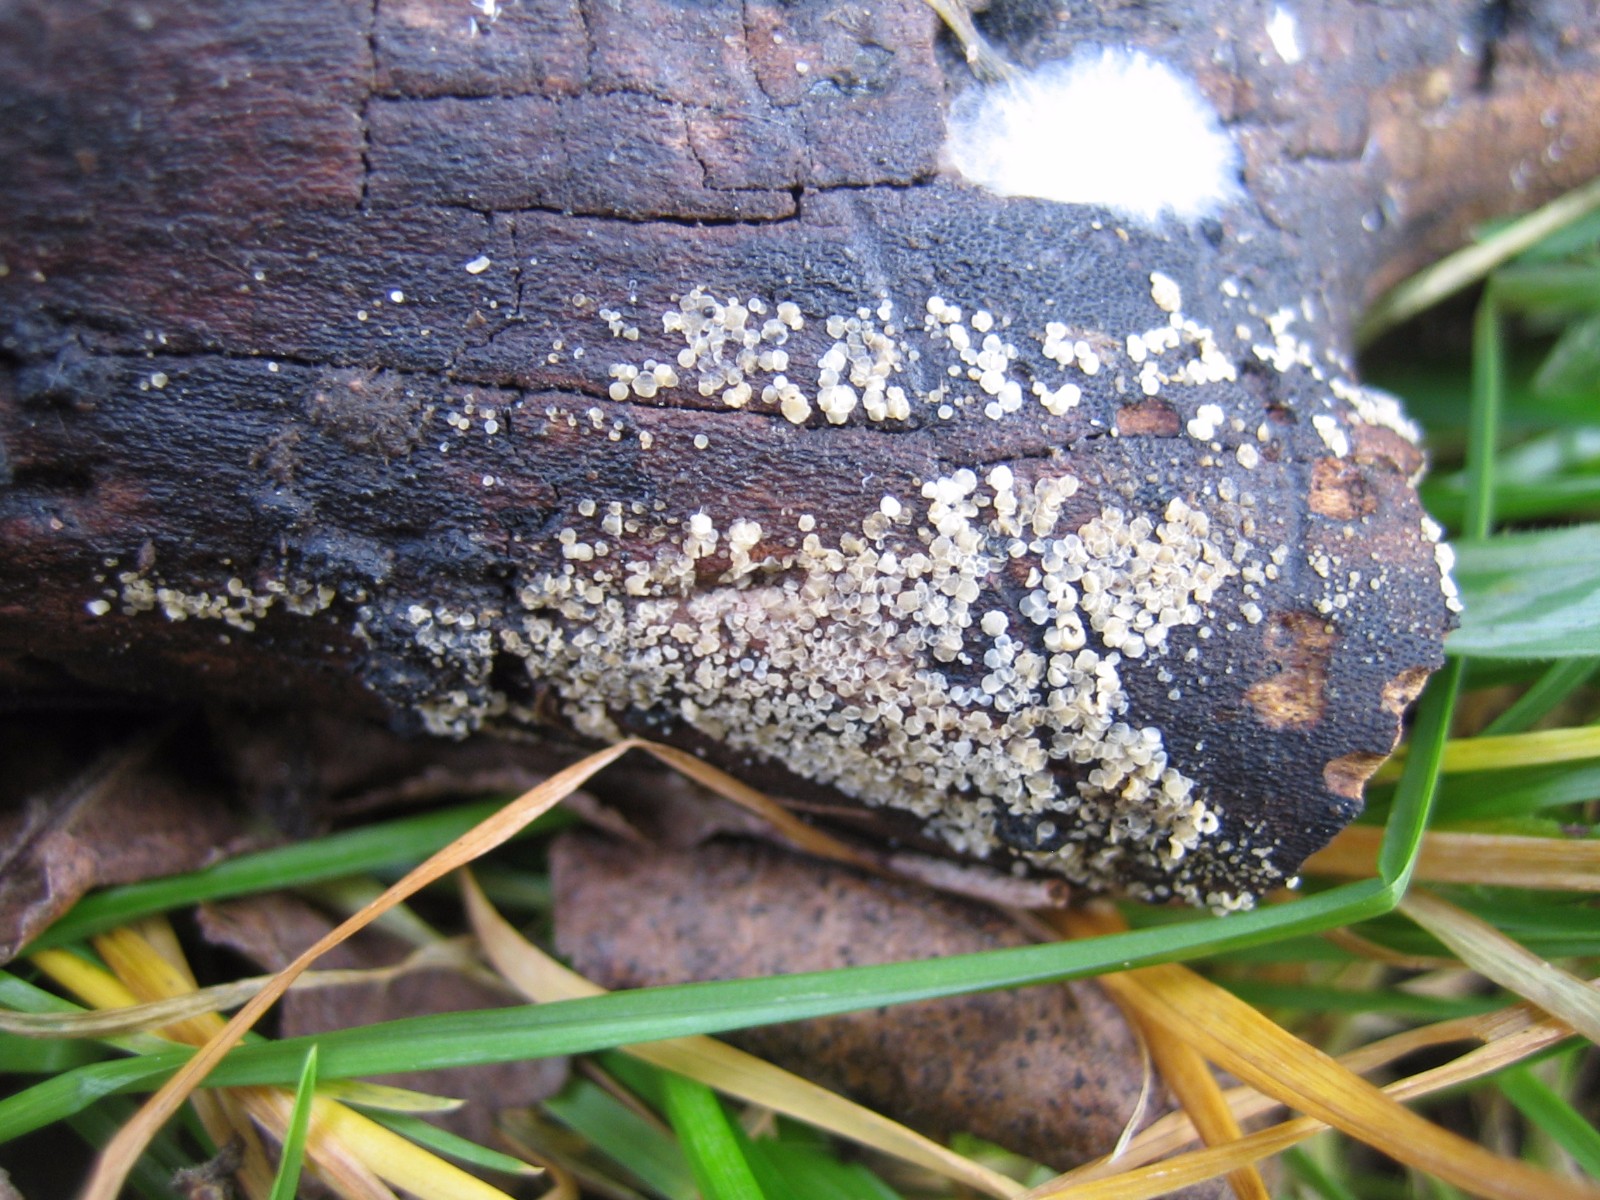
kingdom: Fungi
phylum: Ascomycota
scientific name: Ascomycota
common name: sæksvampe
